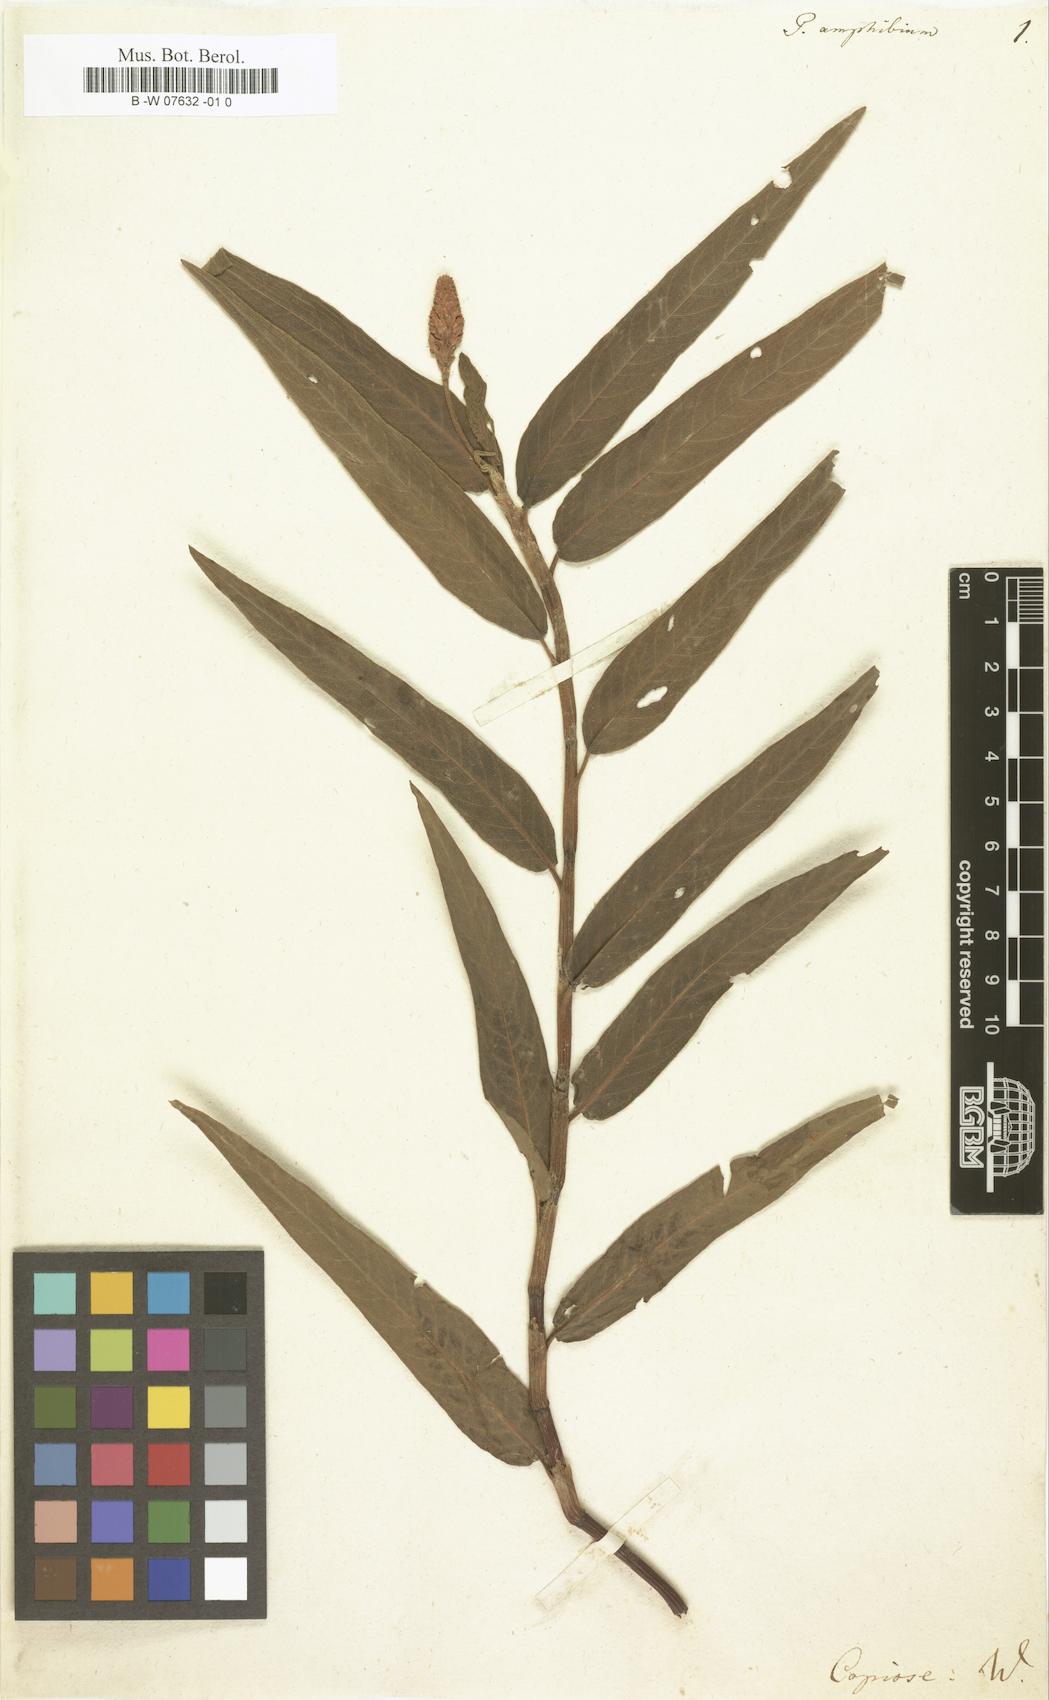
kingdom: Plantae
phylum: Tracheophyta
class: Magnoliopsida
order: Caryophyllales
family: Polygonaceae
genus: Persicaria
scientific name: Persicaria amphibia
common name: Amphibious bistort
